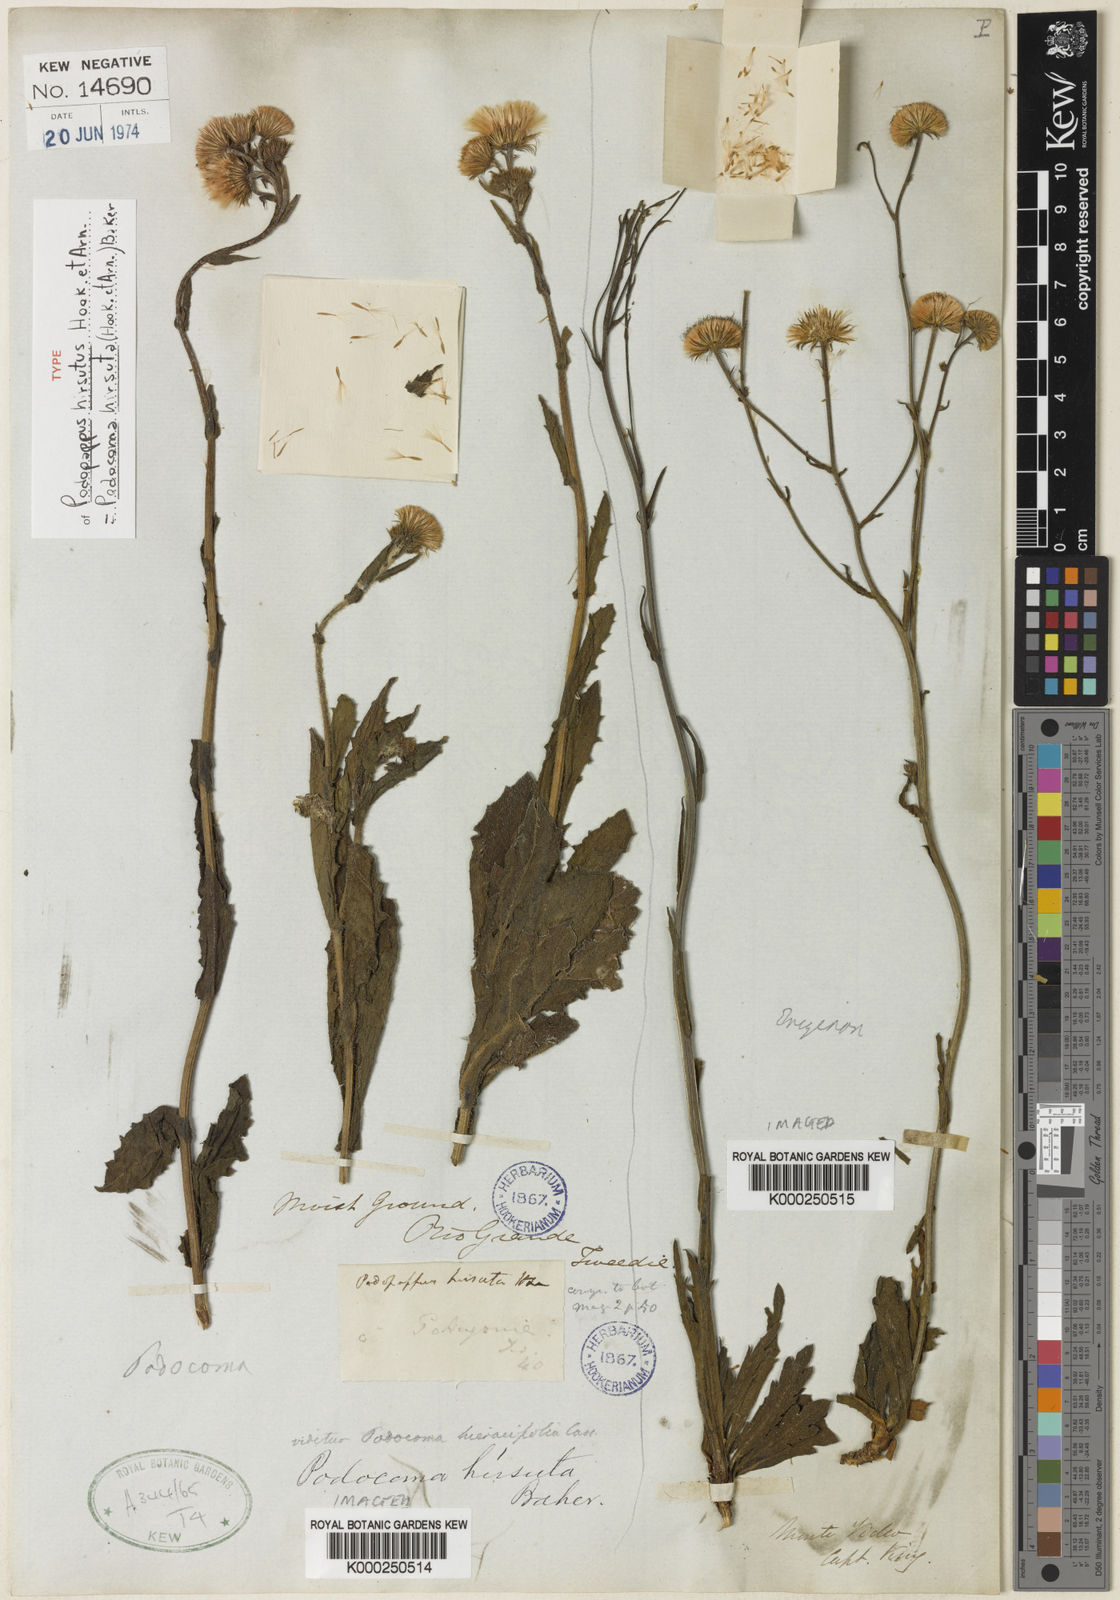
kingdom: Plantae
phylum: Tracheophyta
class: Magnoliopsida
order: Asterales
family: Asteraceae
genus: Podocoma
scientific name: Podocoma hirsuta
